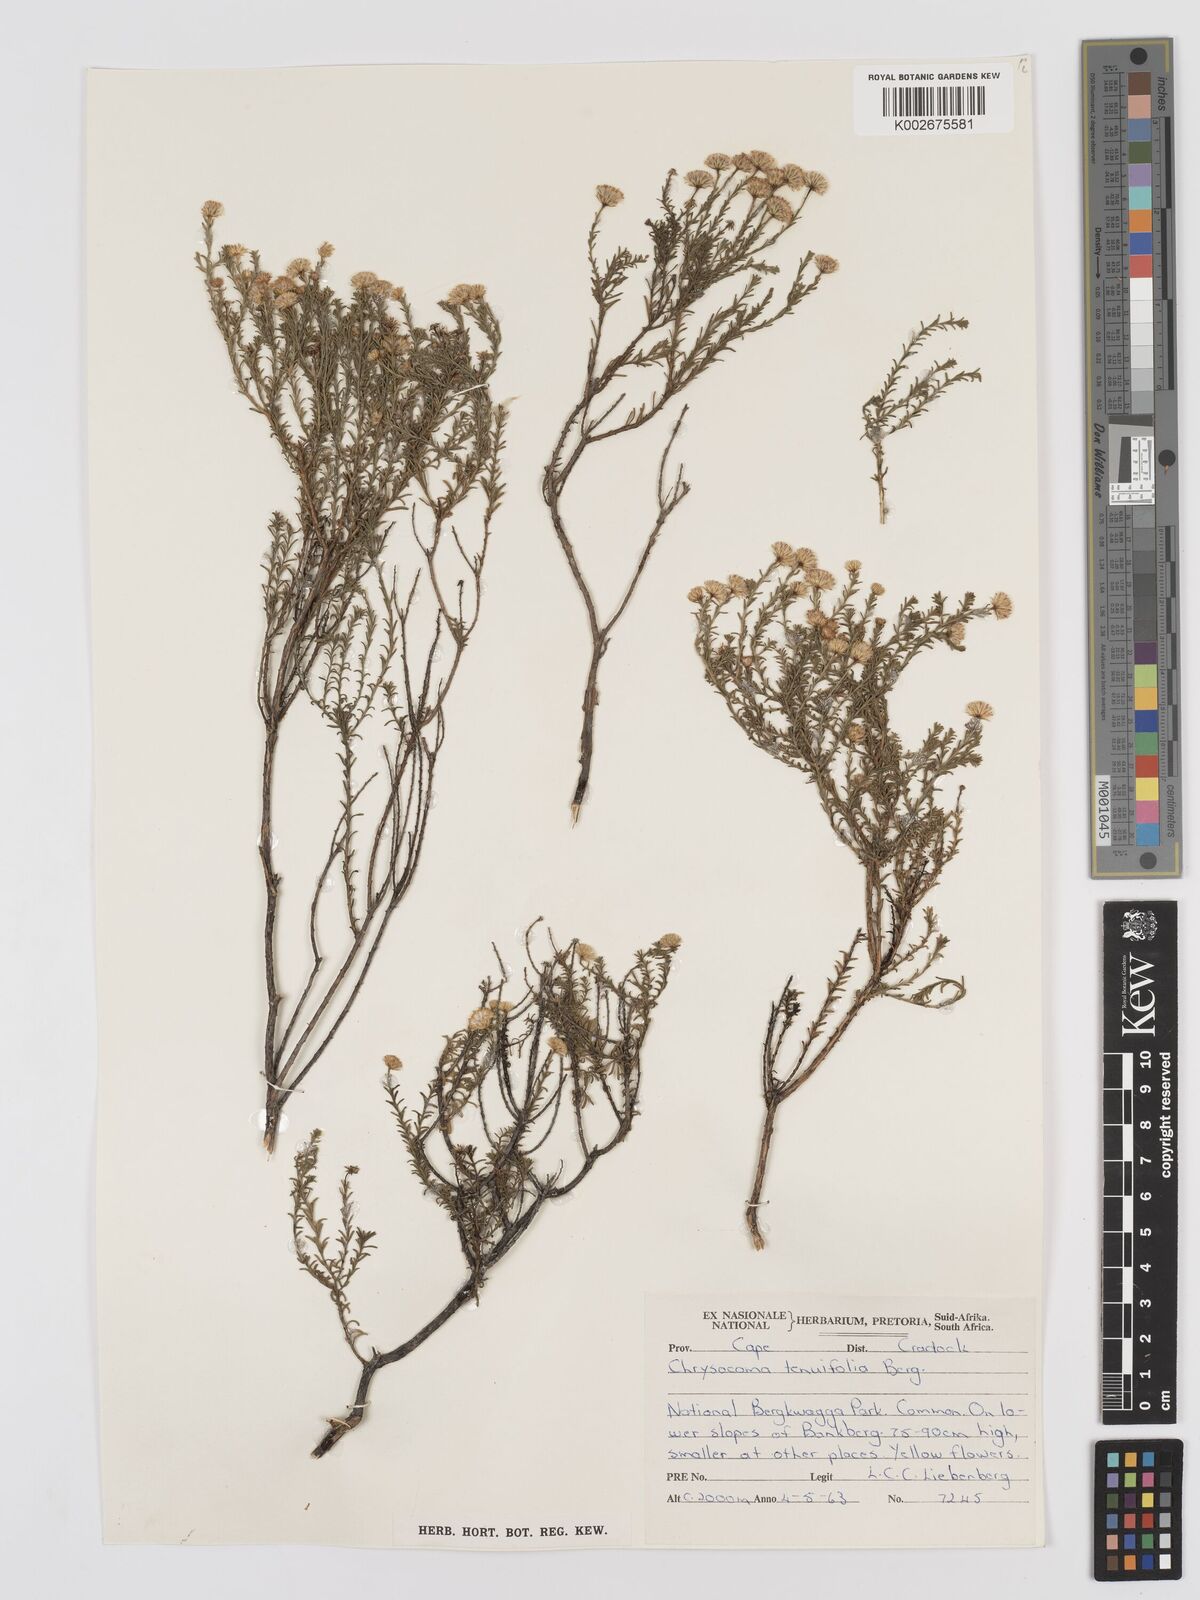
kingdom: Plantae
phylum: Tracheophyta
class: Magnoliopsida
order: Asterales
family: Asteraceae
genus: Chrysocoma
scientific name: Chrysocoma ciliata
